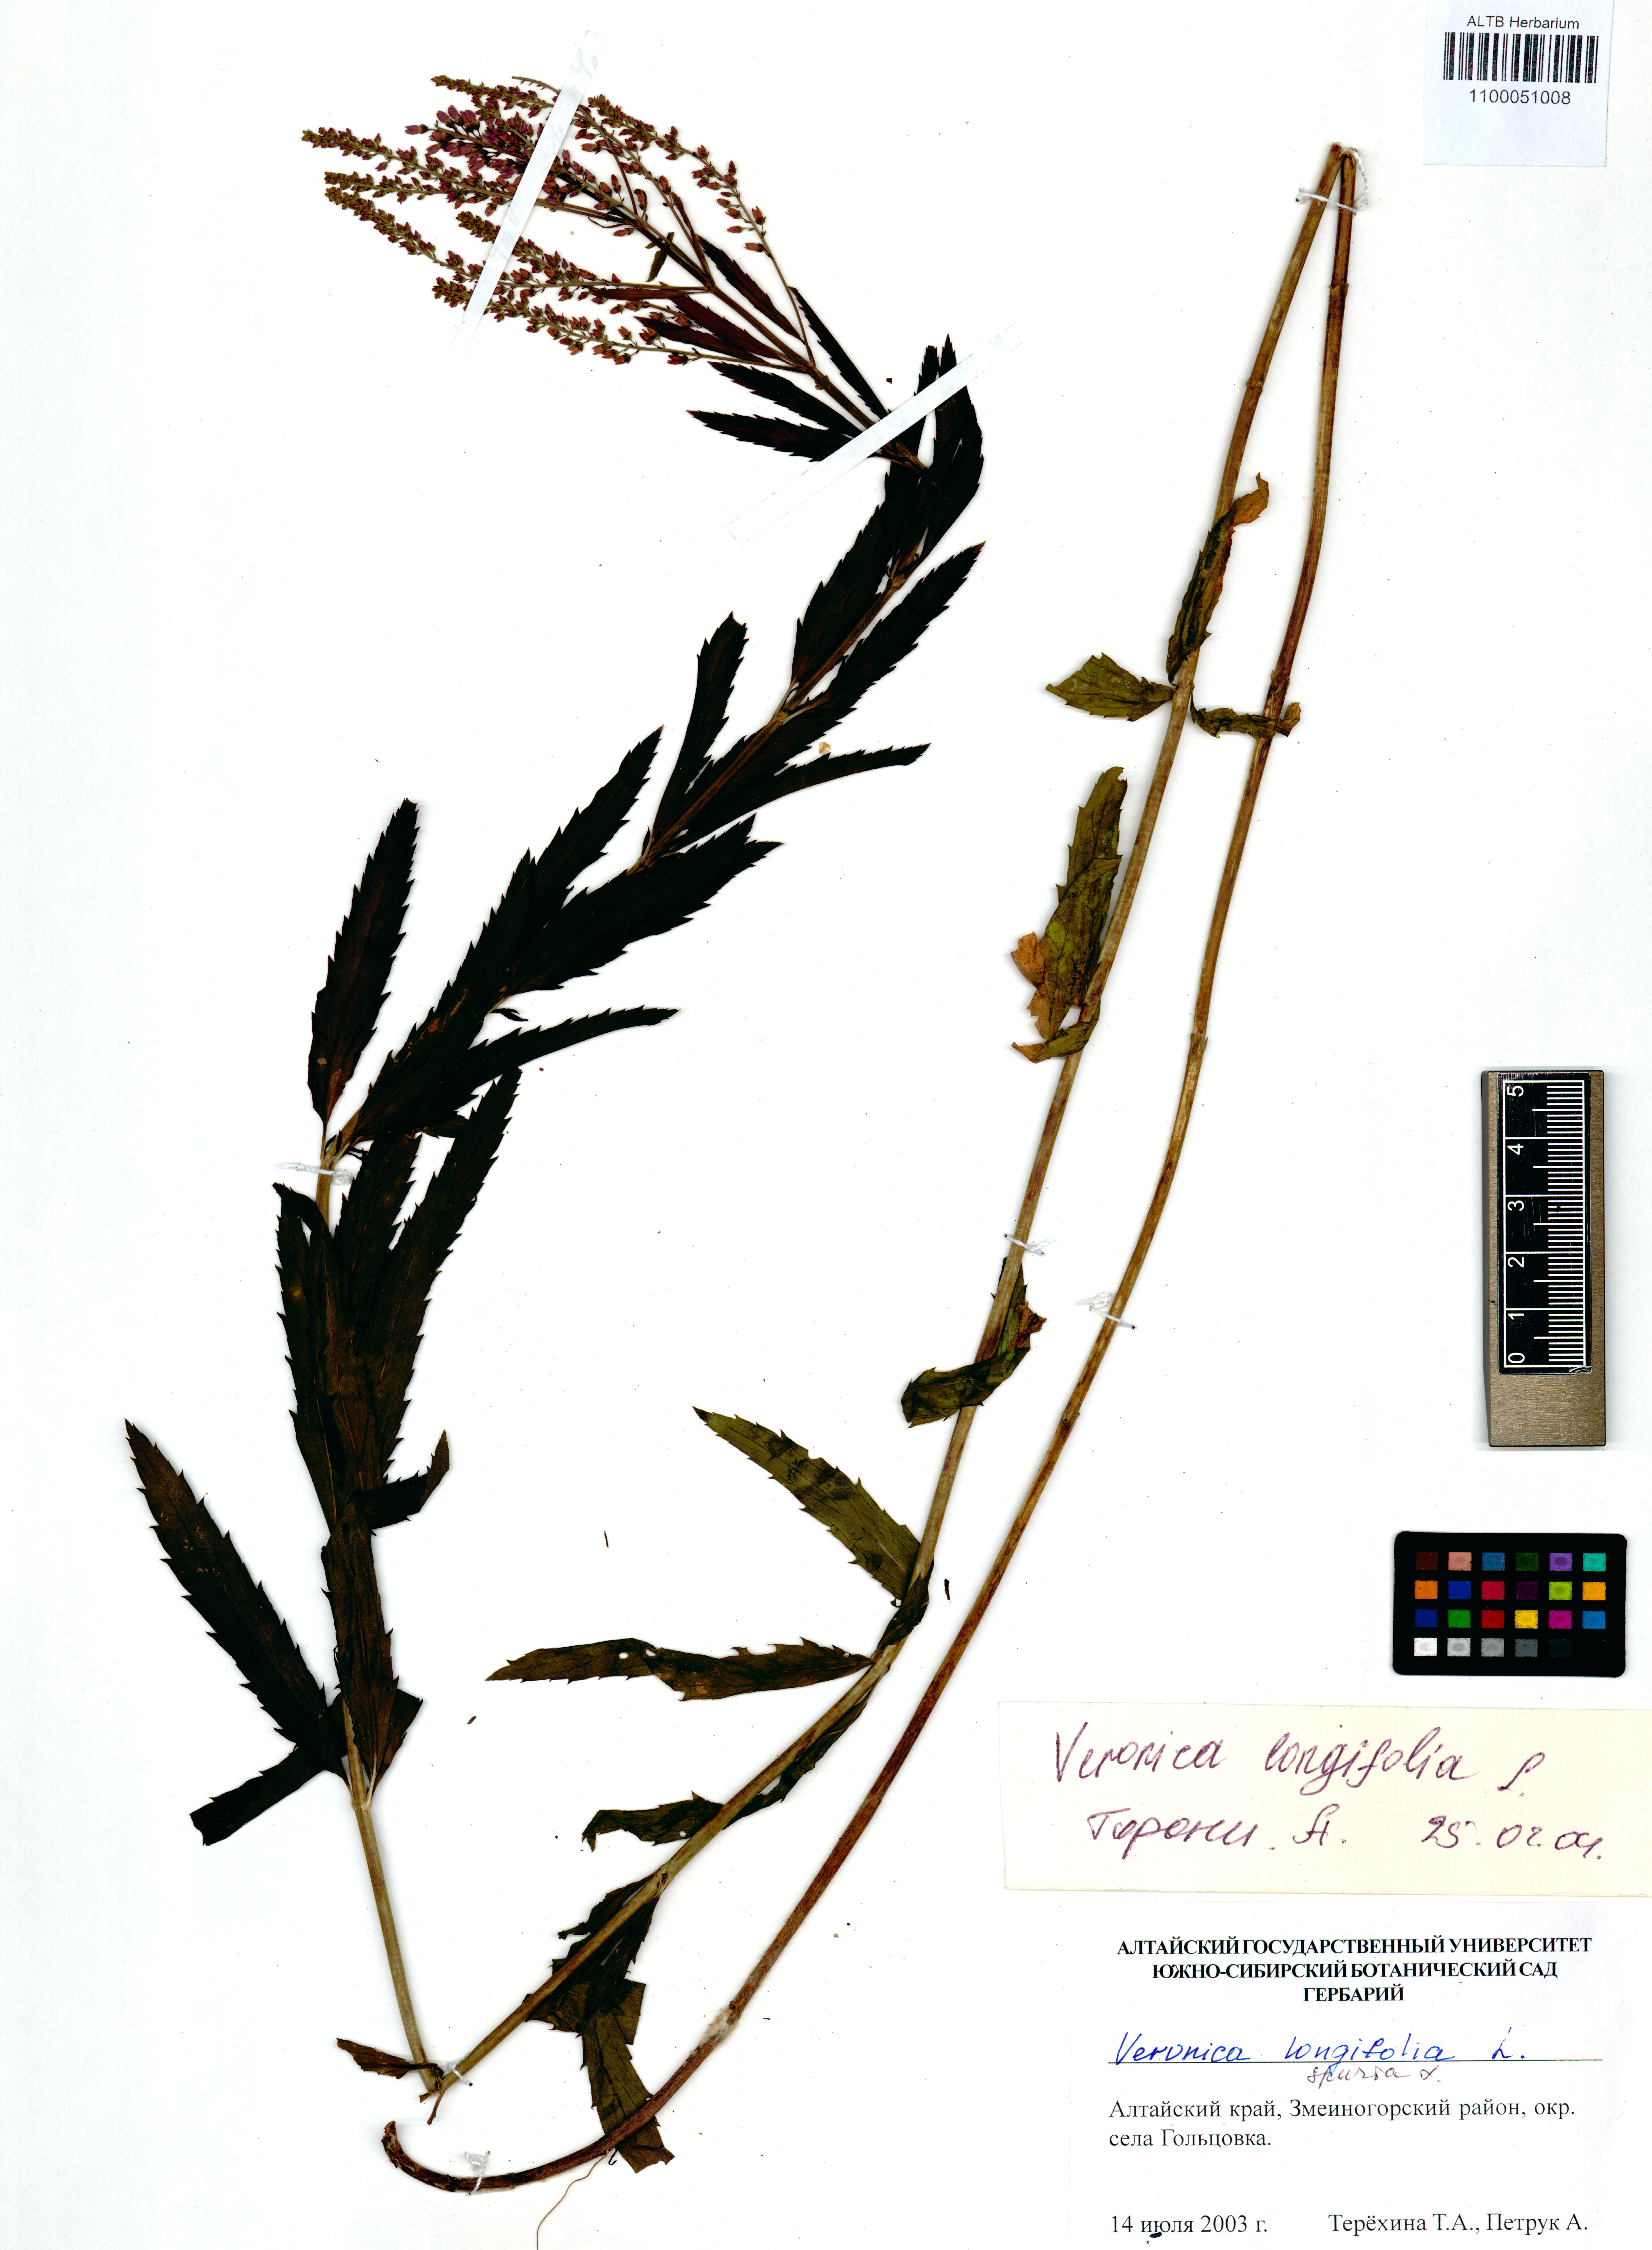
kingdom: Plantae
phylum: Tracheophyta
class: Magnoliopsida
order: Lamiales
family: Plantaginaceae
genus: Veronica
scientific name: Veronica longifolia
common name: Garden speedwell
